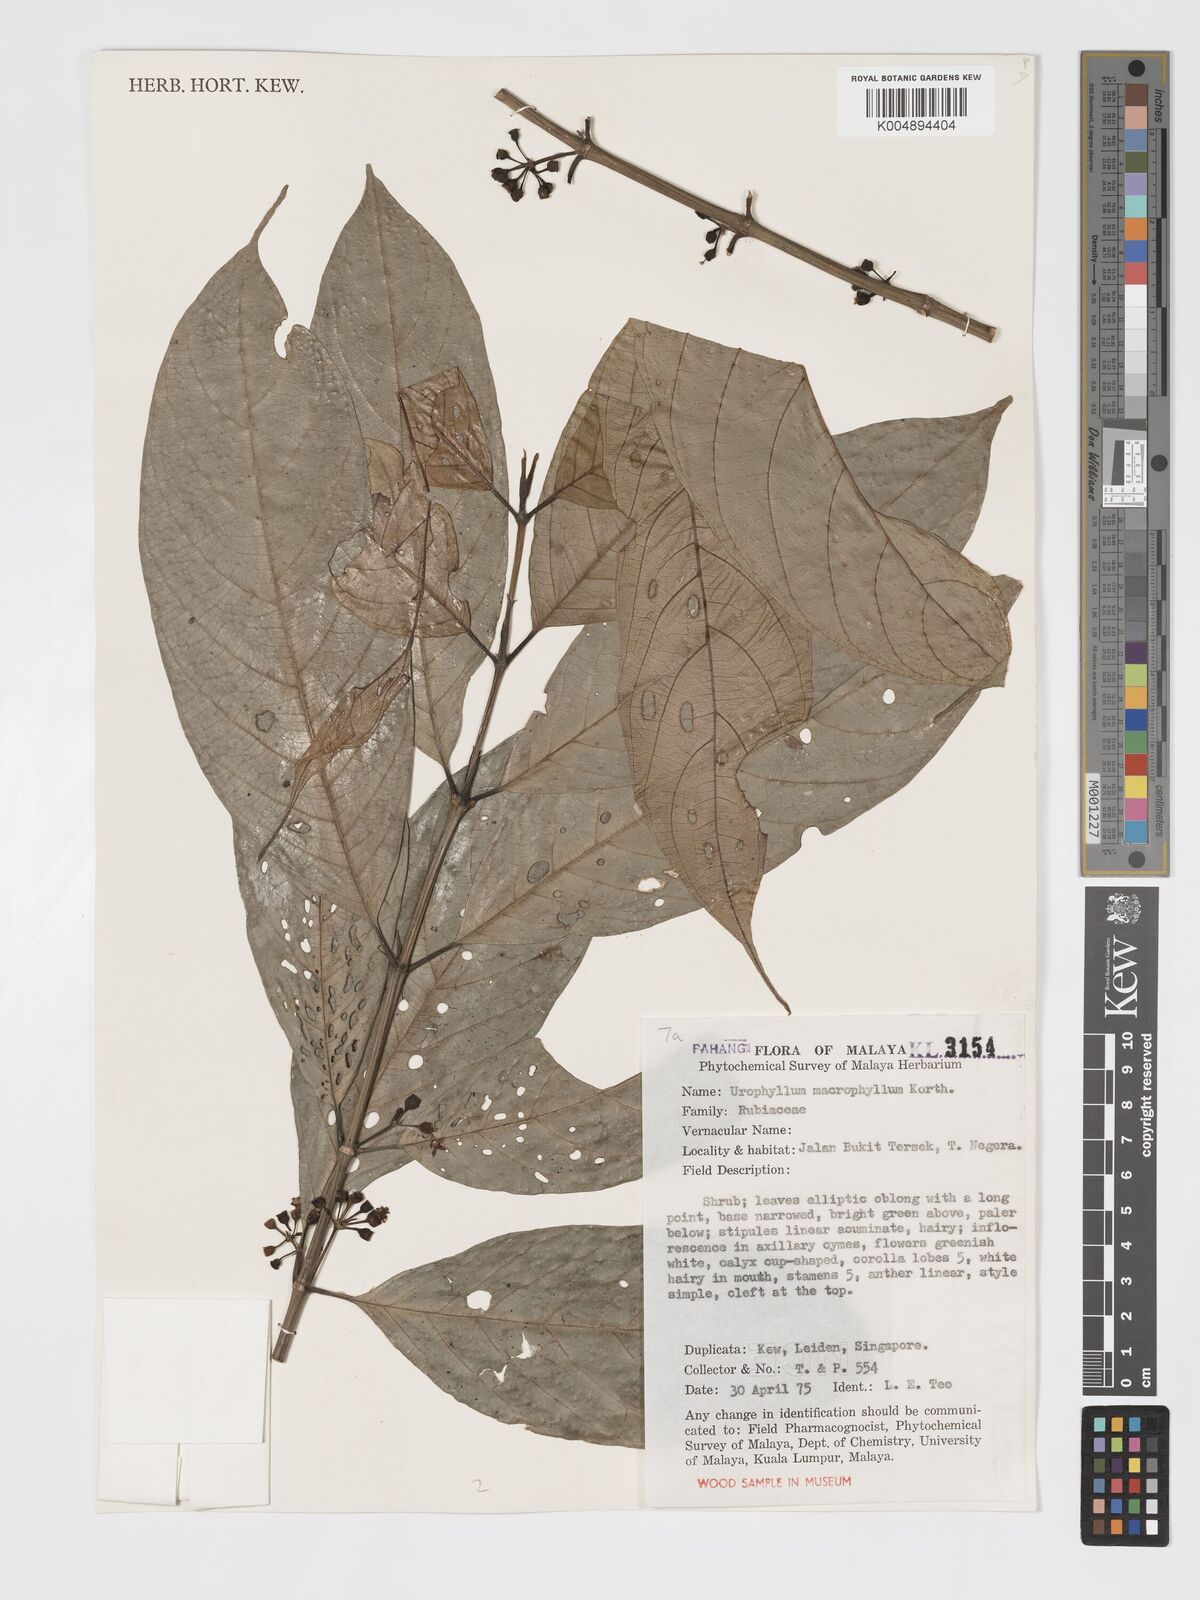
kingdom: Plantae
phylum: Tracheophyta
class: Magnoliopsida
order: Gentianales
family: Rubiaceae
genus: Urophyllum
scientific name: Urophyllum
